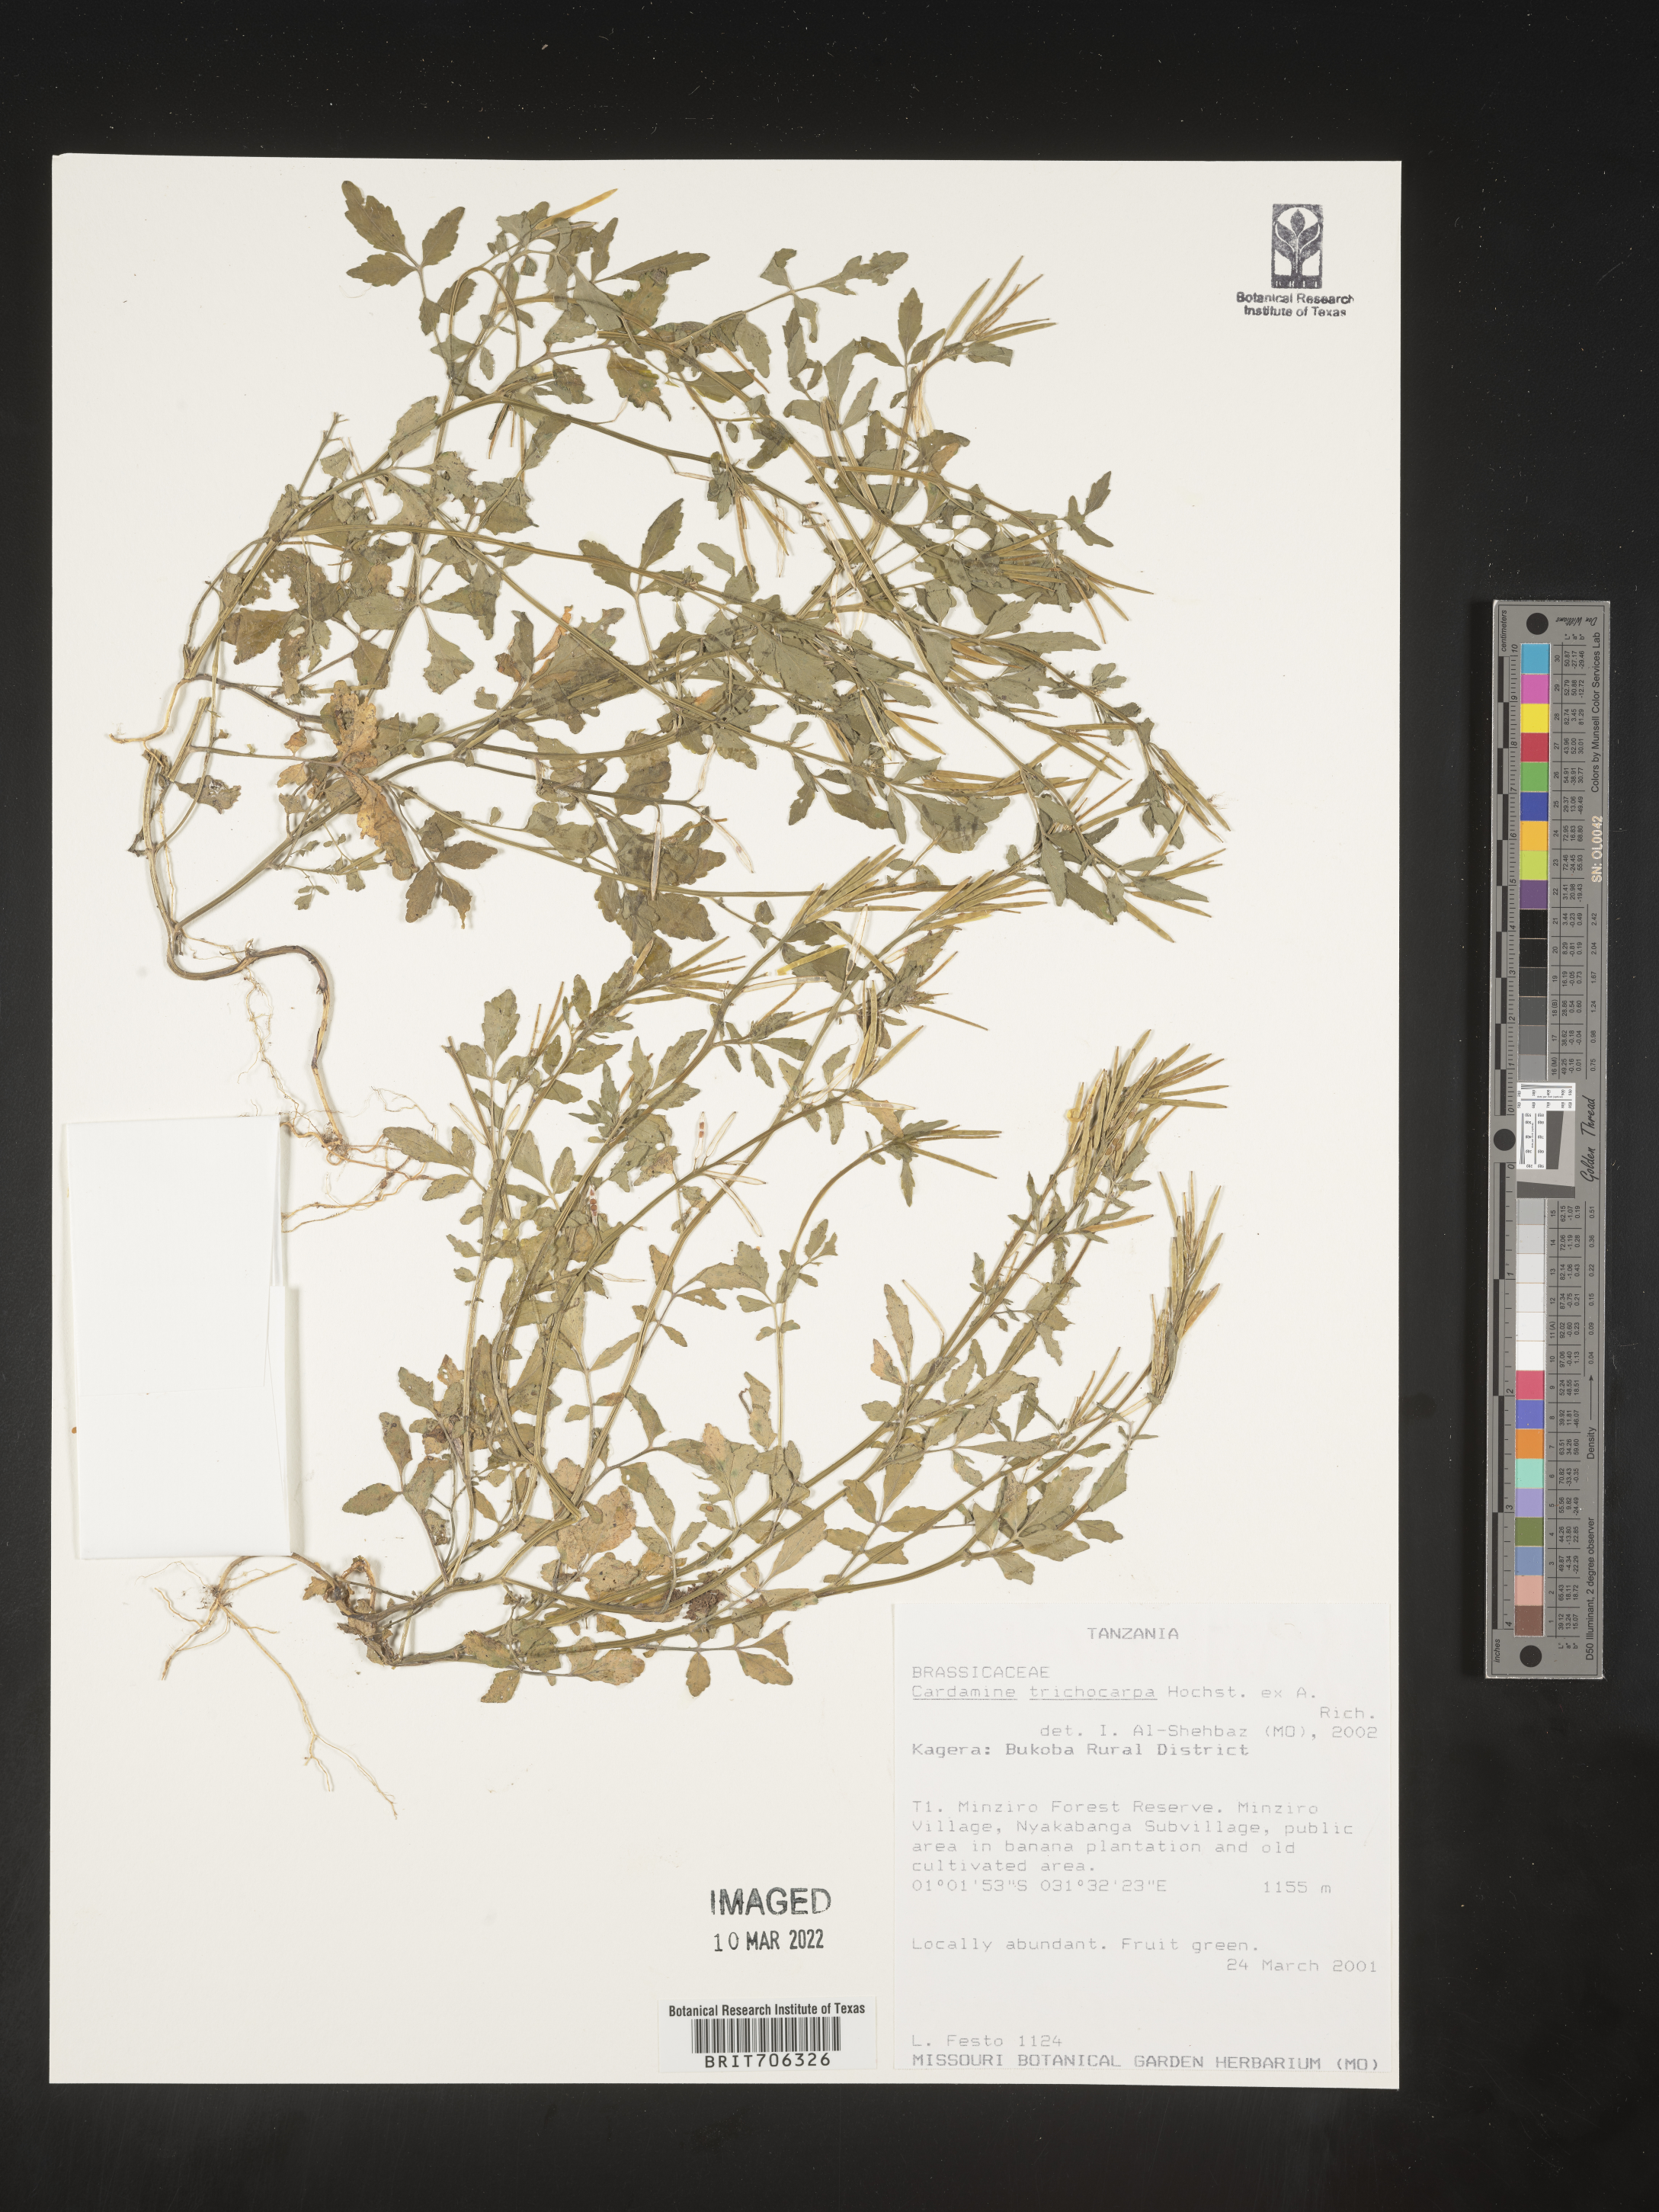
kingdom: Plantae
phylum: Tracheophyta
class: Magnoliopsida
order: Brassicales
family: Brassicaceae
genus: Cardamine
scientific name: Cardamine
